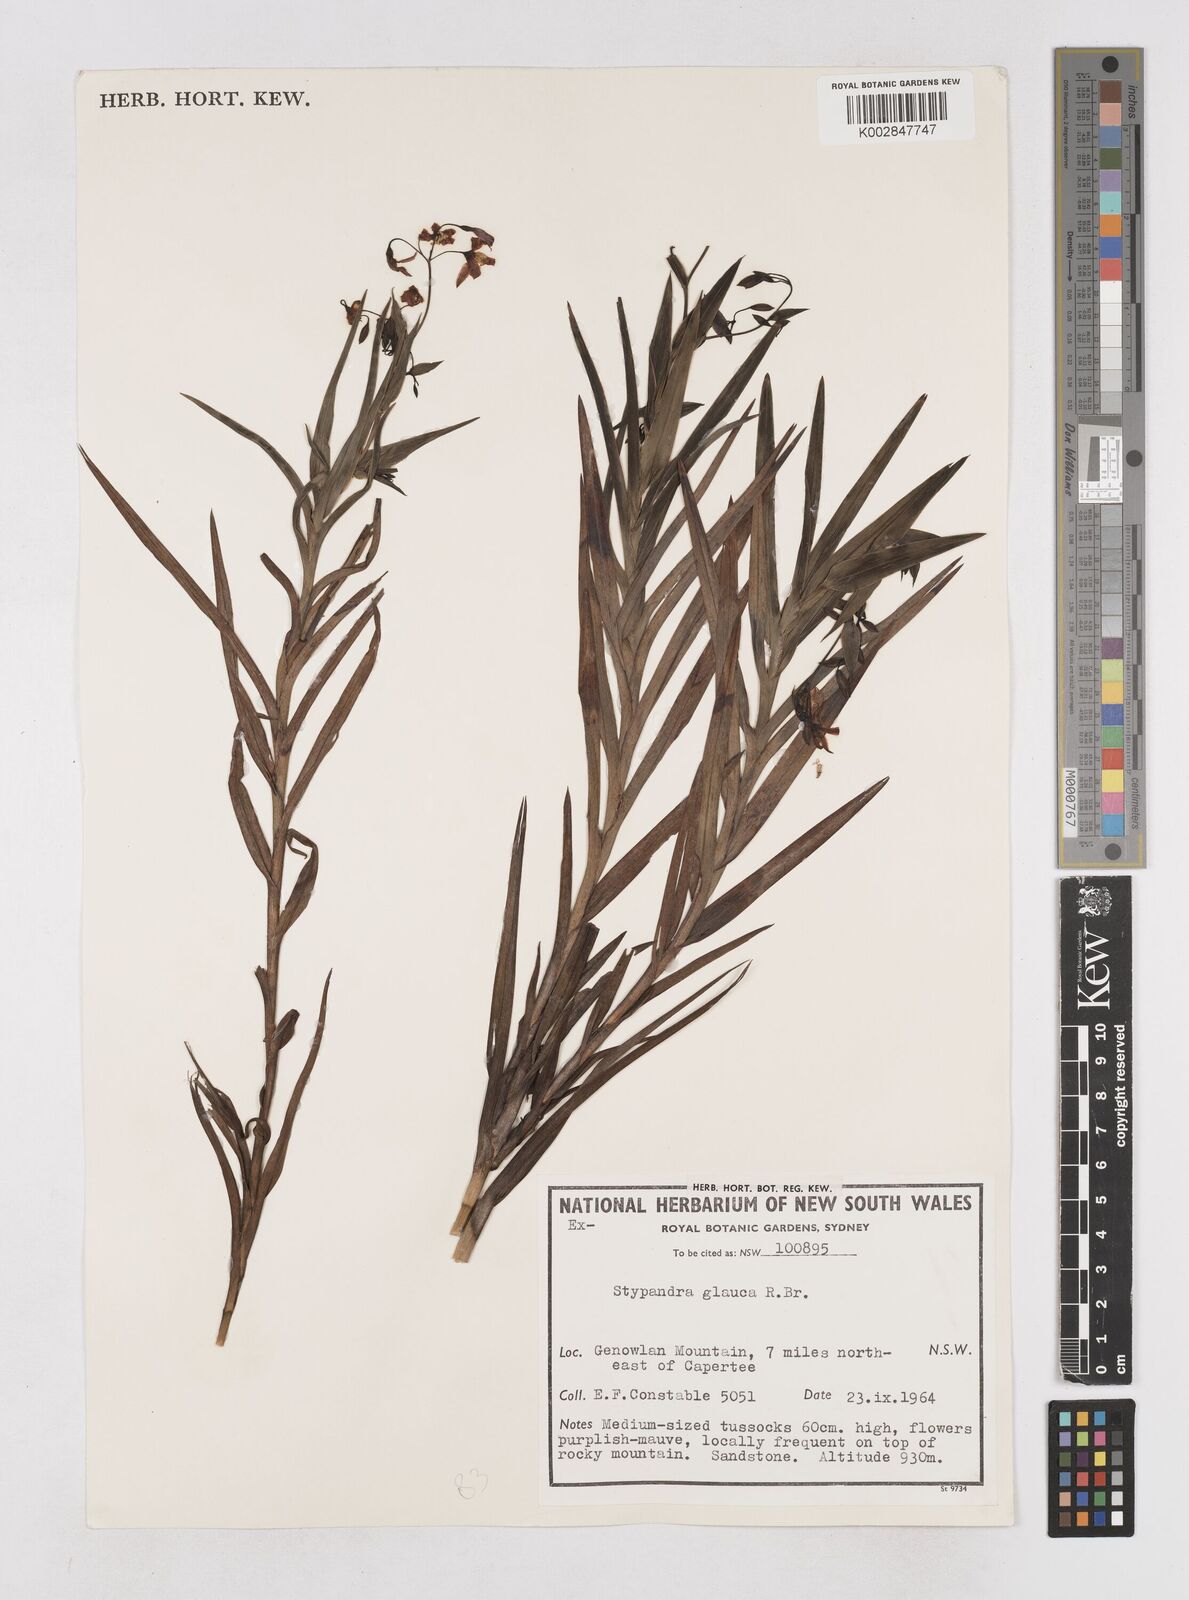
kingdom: Plantae
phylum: Tracheophyta
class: Liliopsida
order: Asparagales
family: Asphodelaceae
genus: Stypandra
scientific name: Stypandra glauca
